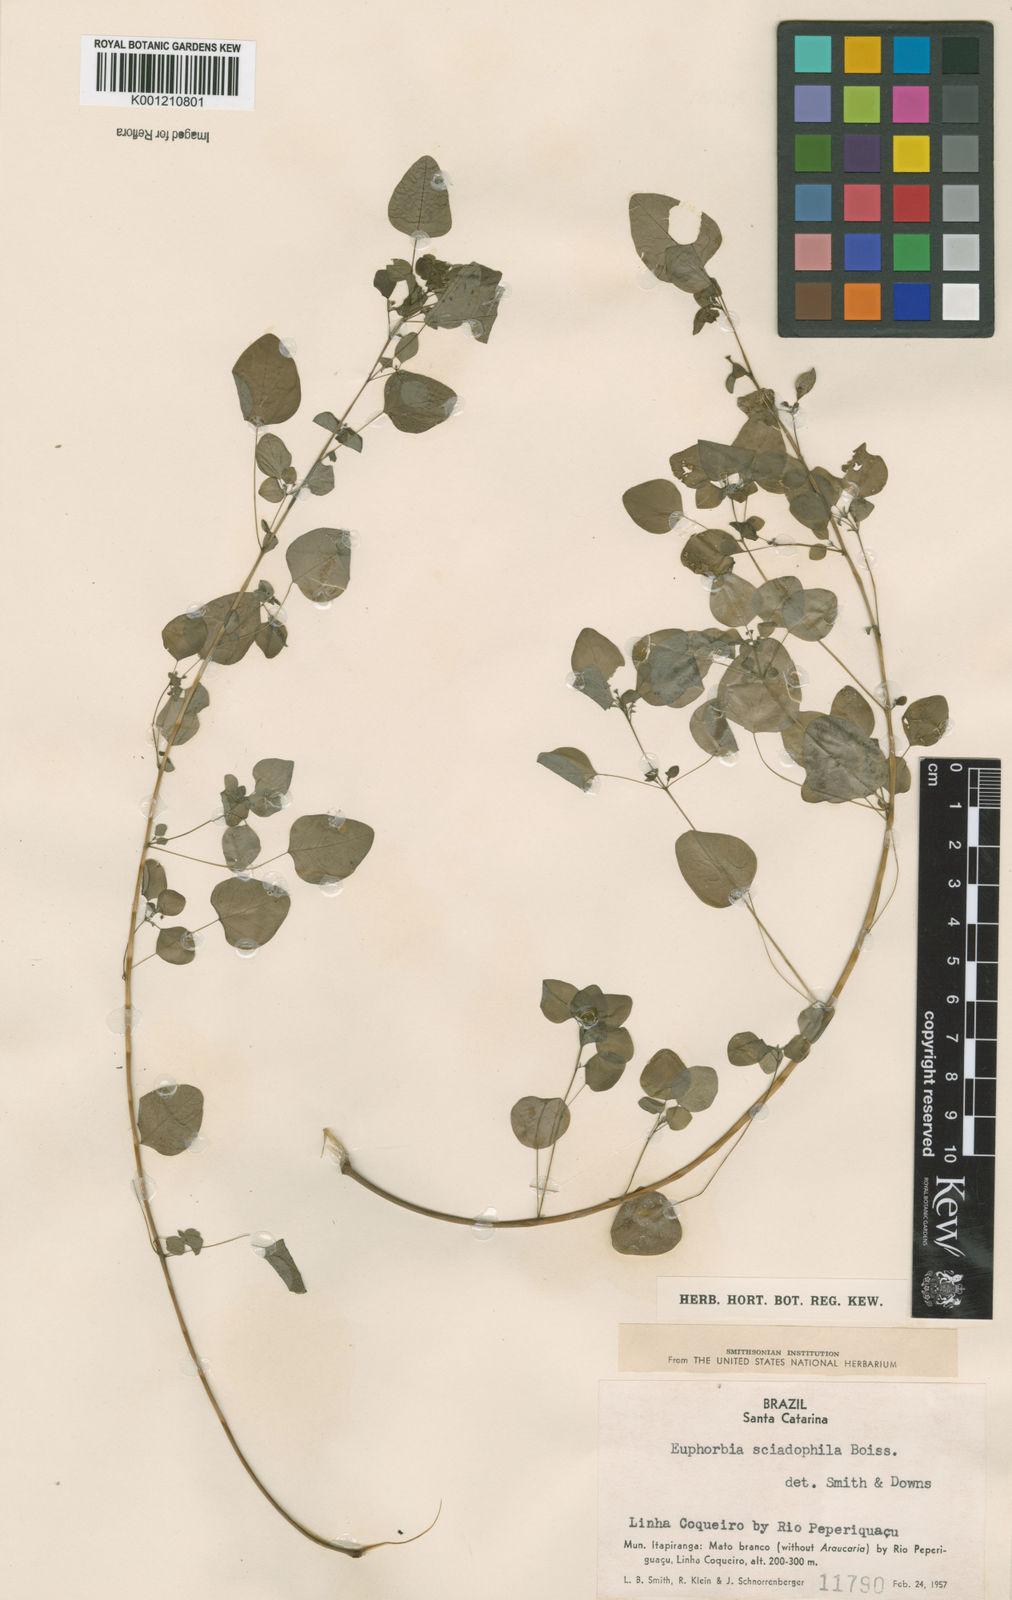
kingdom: Plantae
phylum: Tracheophyta
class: Magnoliopsida
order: Malpighiales
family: Euphorbiaceae
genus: Euphorbia
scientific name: Euphorbia sciadophila
